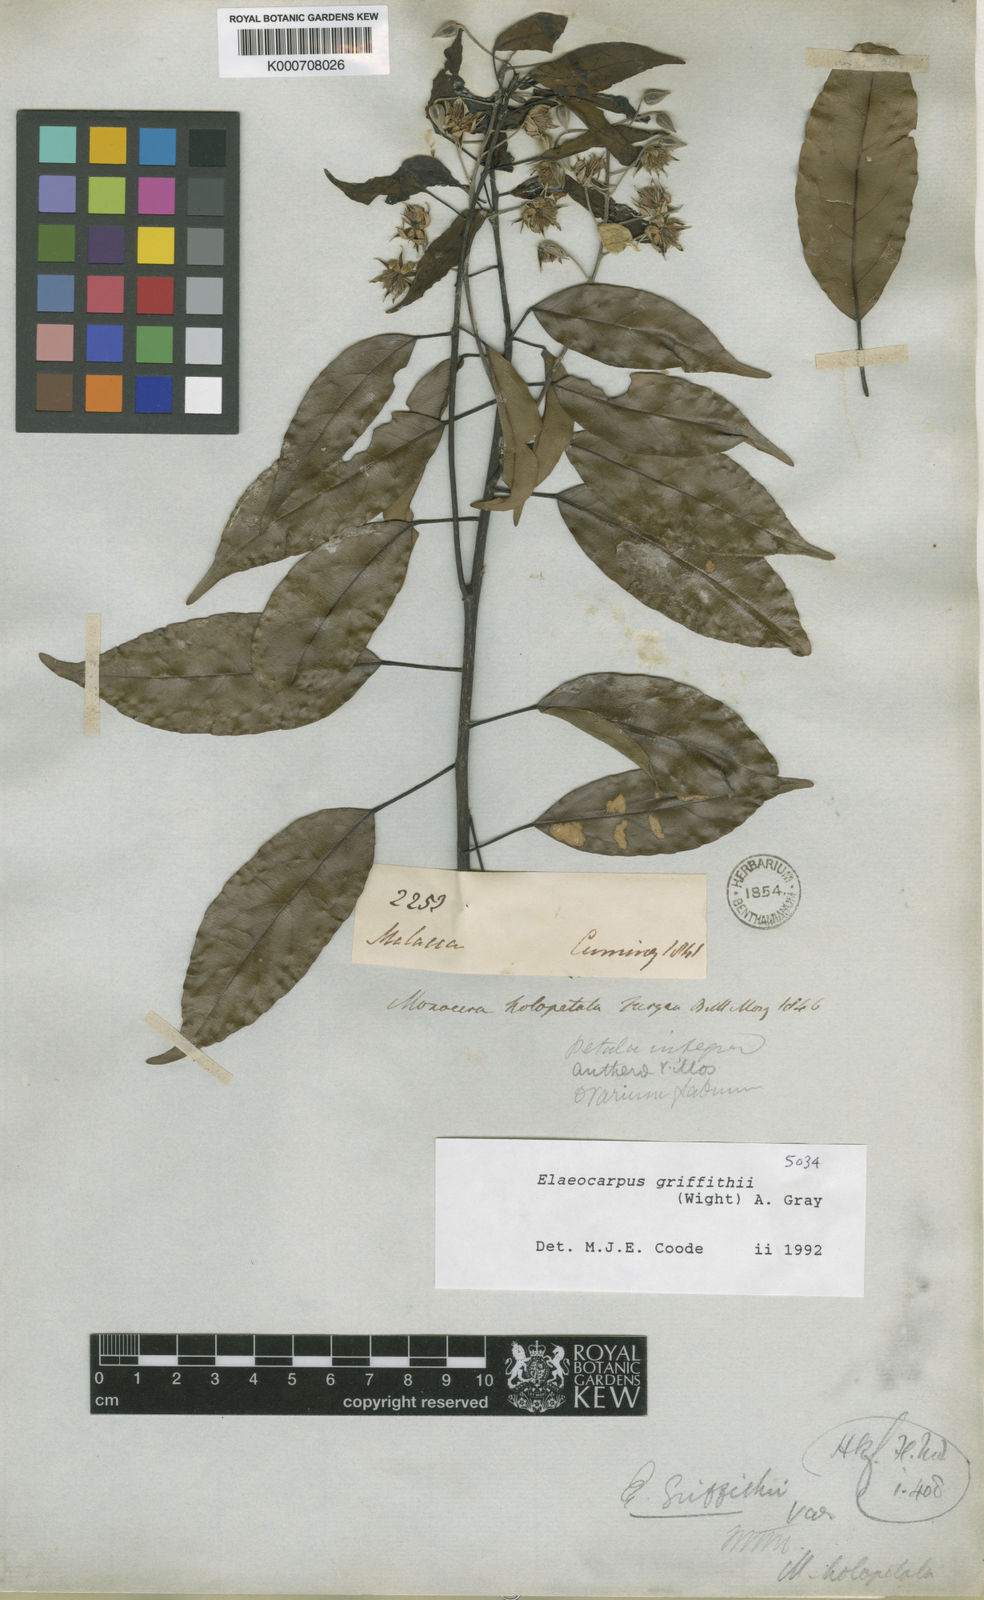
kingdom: Plantae
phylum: Tracheophyta
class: Magnoliopsida
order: Oxalidales
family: Elaeocarpaceae
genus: Elaeocarpus
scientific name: Elaeocarpus griffithii
